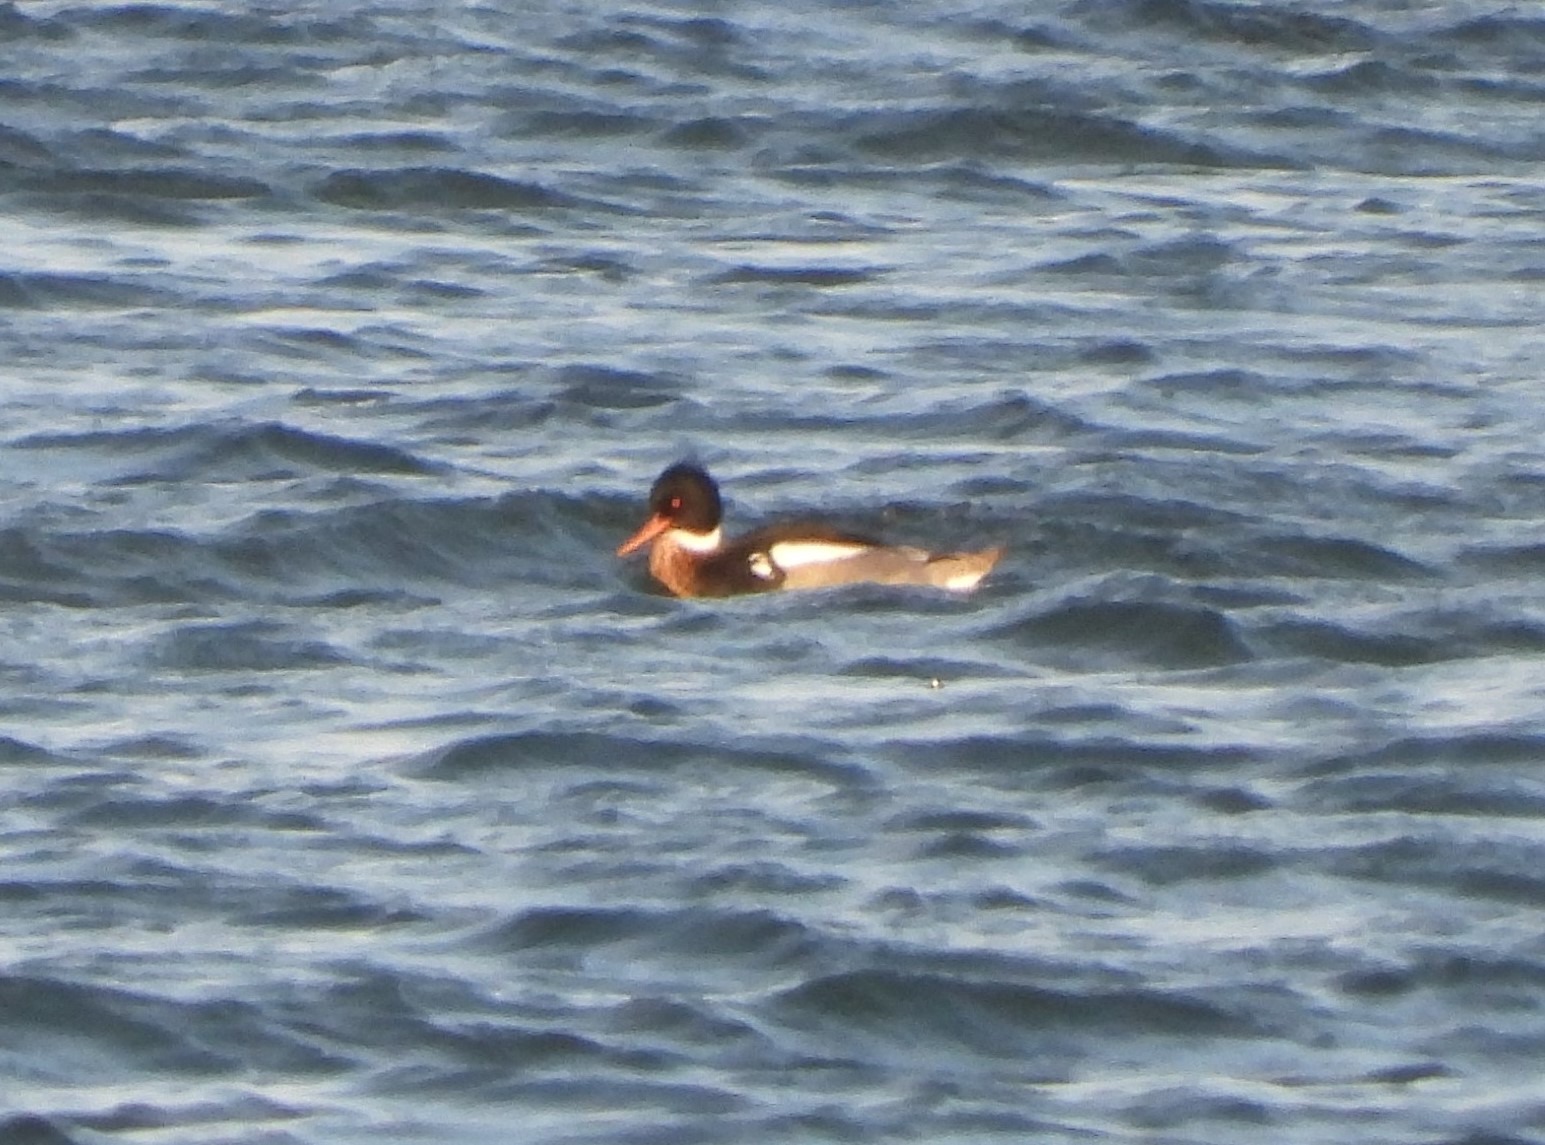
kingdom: Animalia
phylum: Chordata
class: Aves
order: Anseriformes
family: Anatidae
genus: Mergus
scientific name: Mergus serrator
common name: Toppet skallesluger
